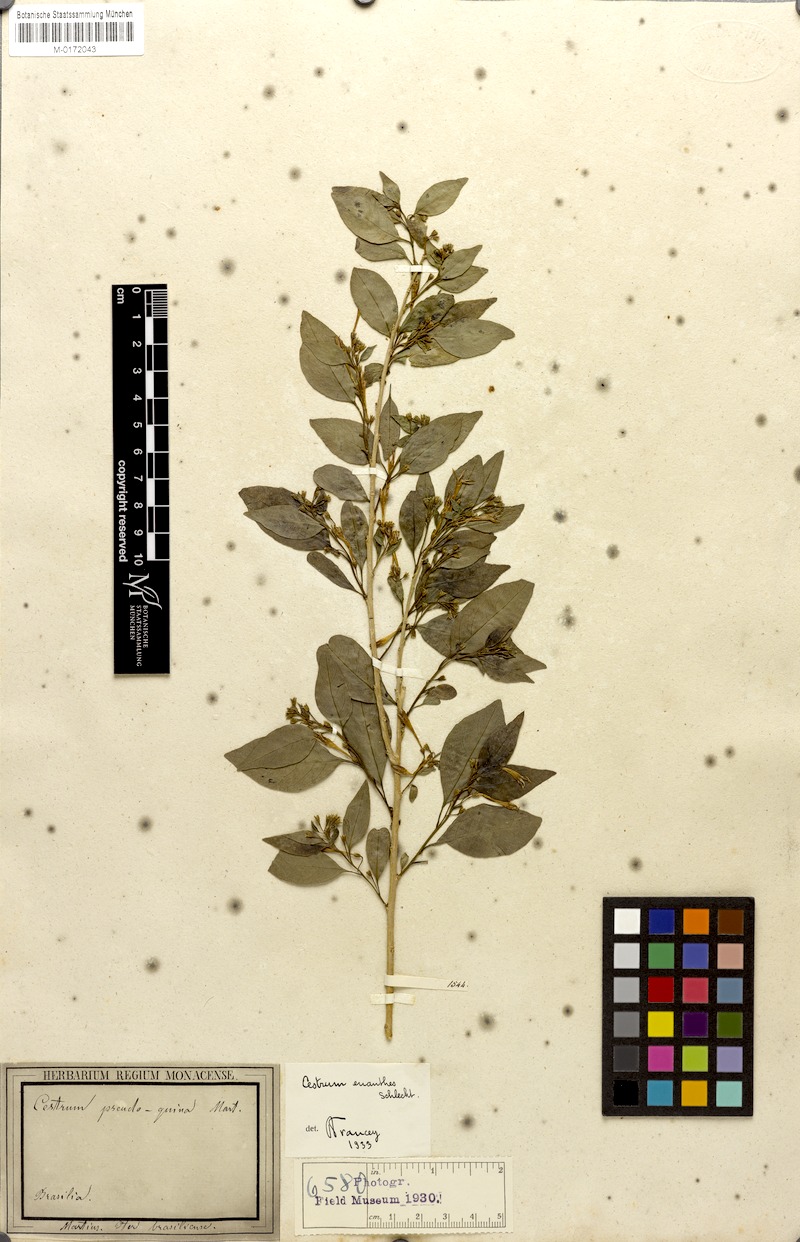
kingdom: Plantae
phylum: Tracheophyta
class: Magnoliopsida
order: Solanales
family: Solanaceae
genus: Cestrum
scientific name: Cestrum euanthes
